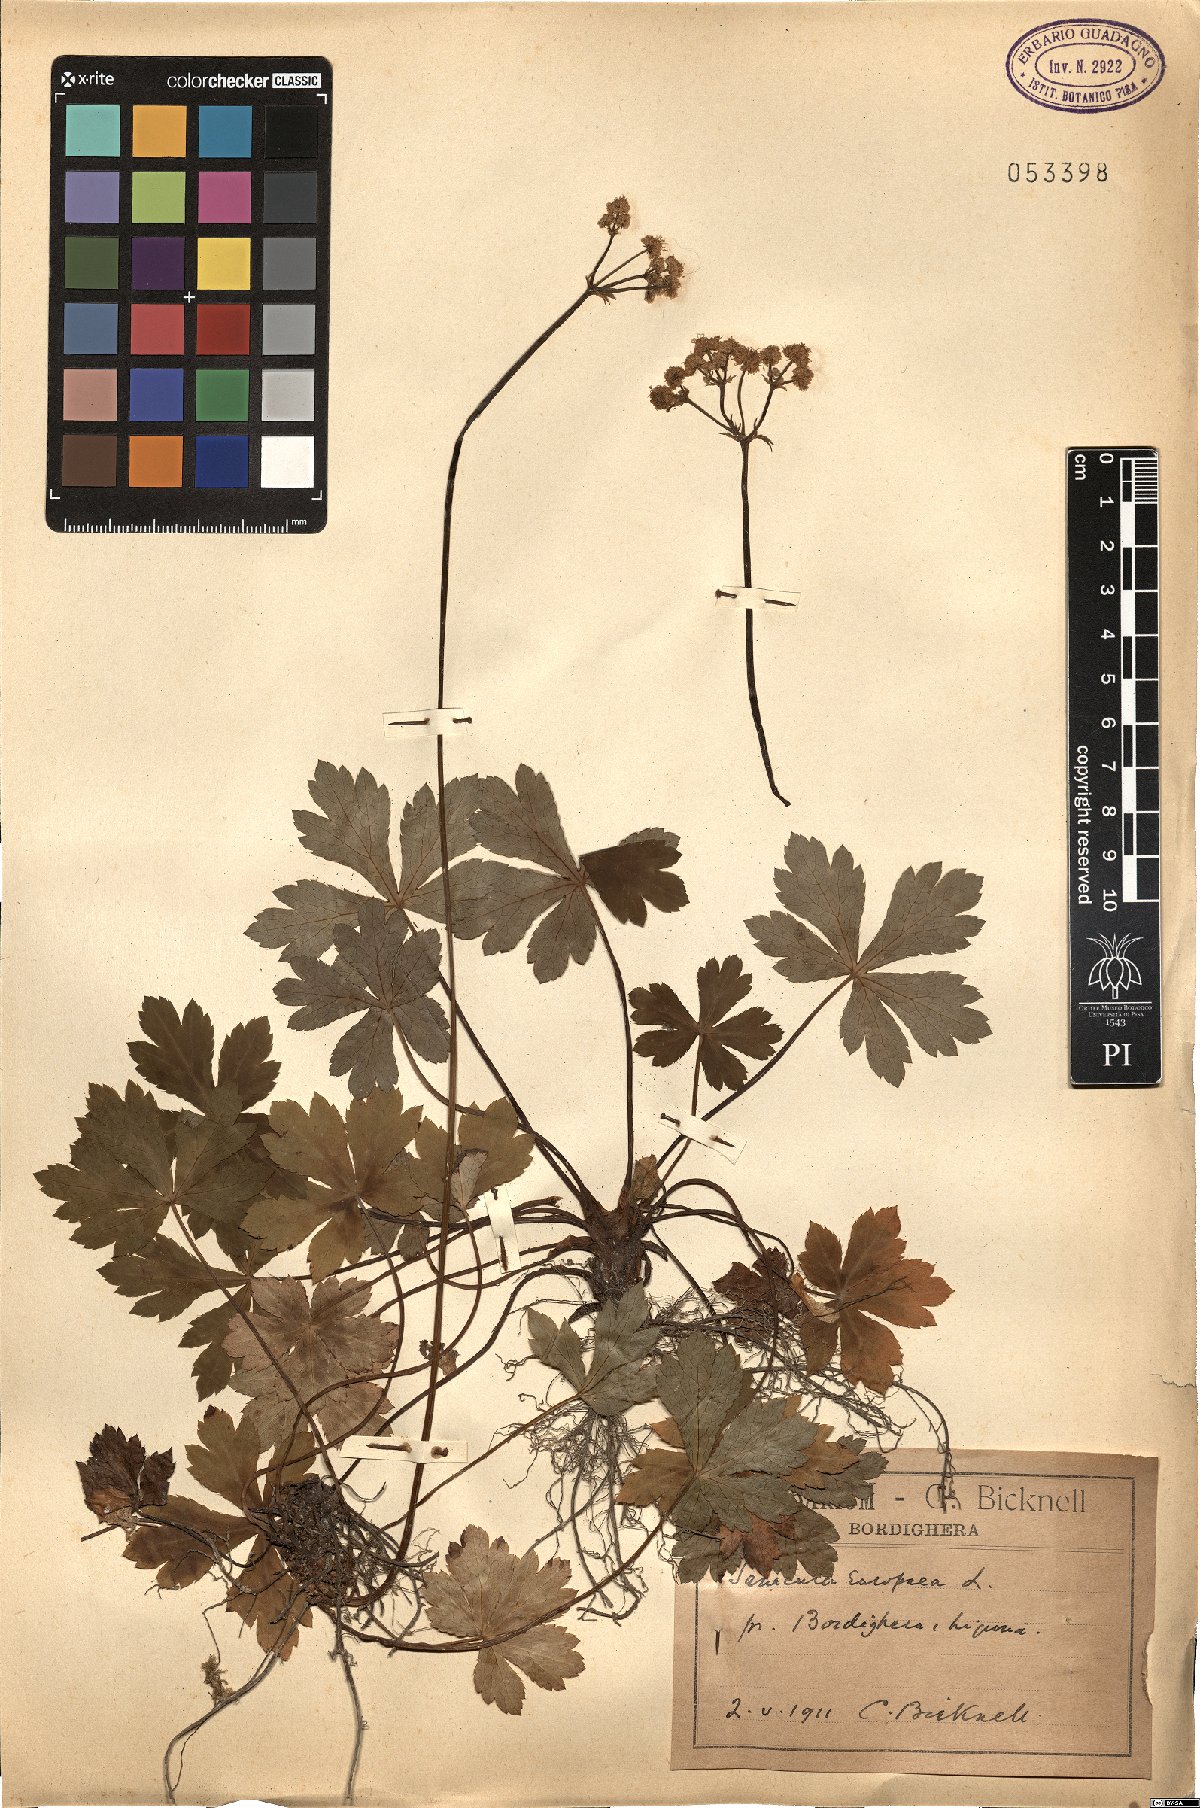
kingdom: Plantae
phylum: Tracheophyta
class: Magnoliopsida
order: Apiales
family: Apiaceae
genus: Sanicula
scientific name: Sanicula europaea
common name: Sanicle
